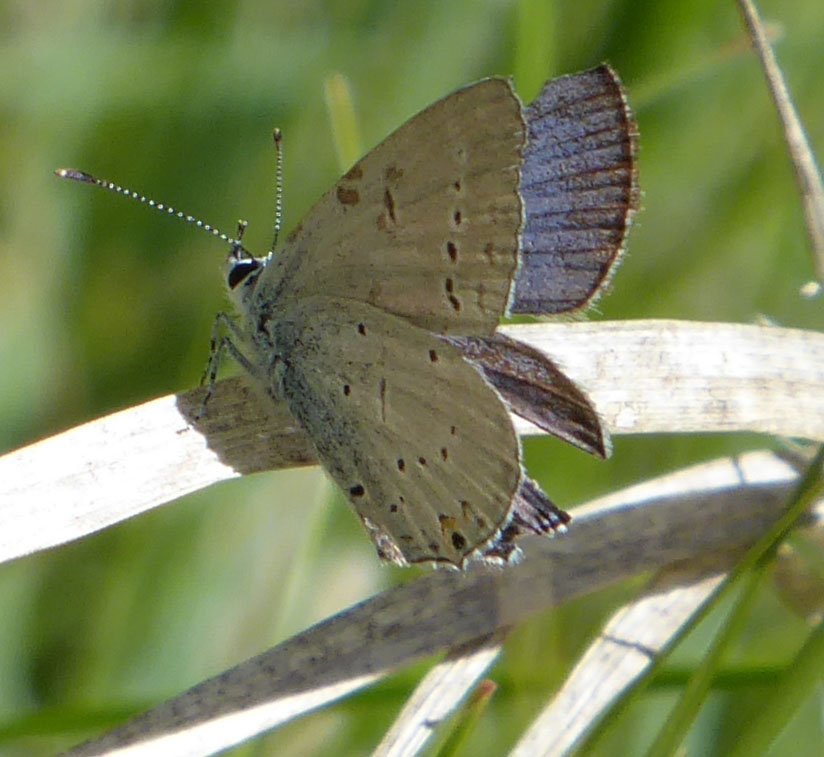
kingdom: Animalia
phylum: Arthropoda
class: Insecta
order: Lepidoptera
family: Lycaenidae
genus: Elkalyce
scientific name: Elkalyce amyntula
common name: Western Tailed-Blue
